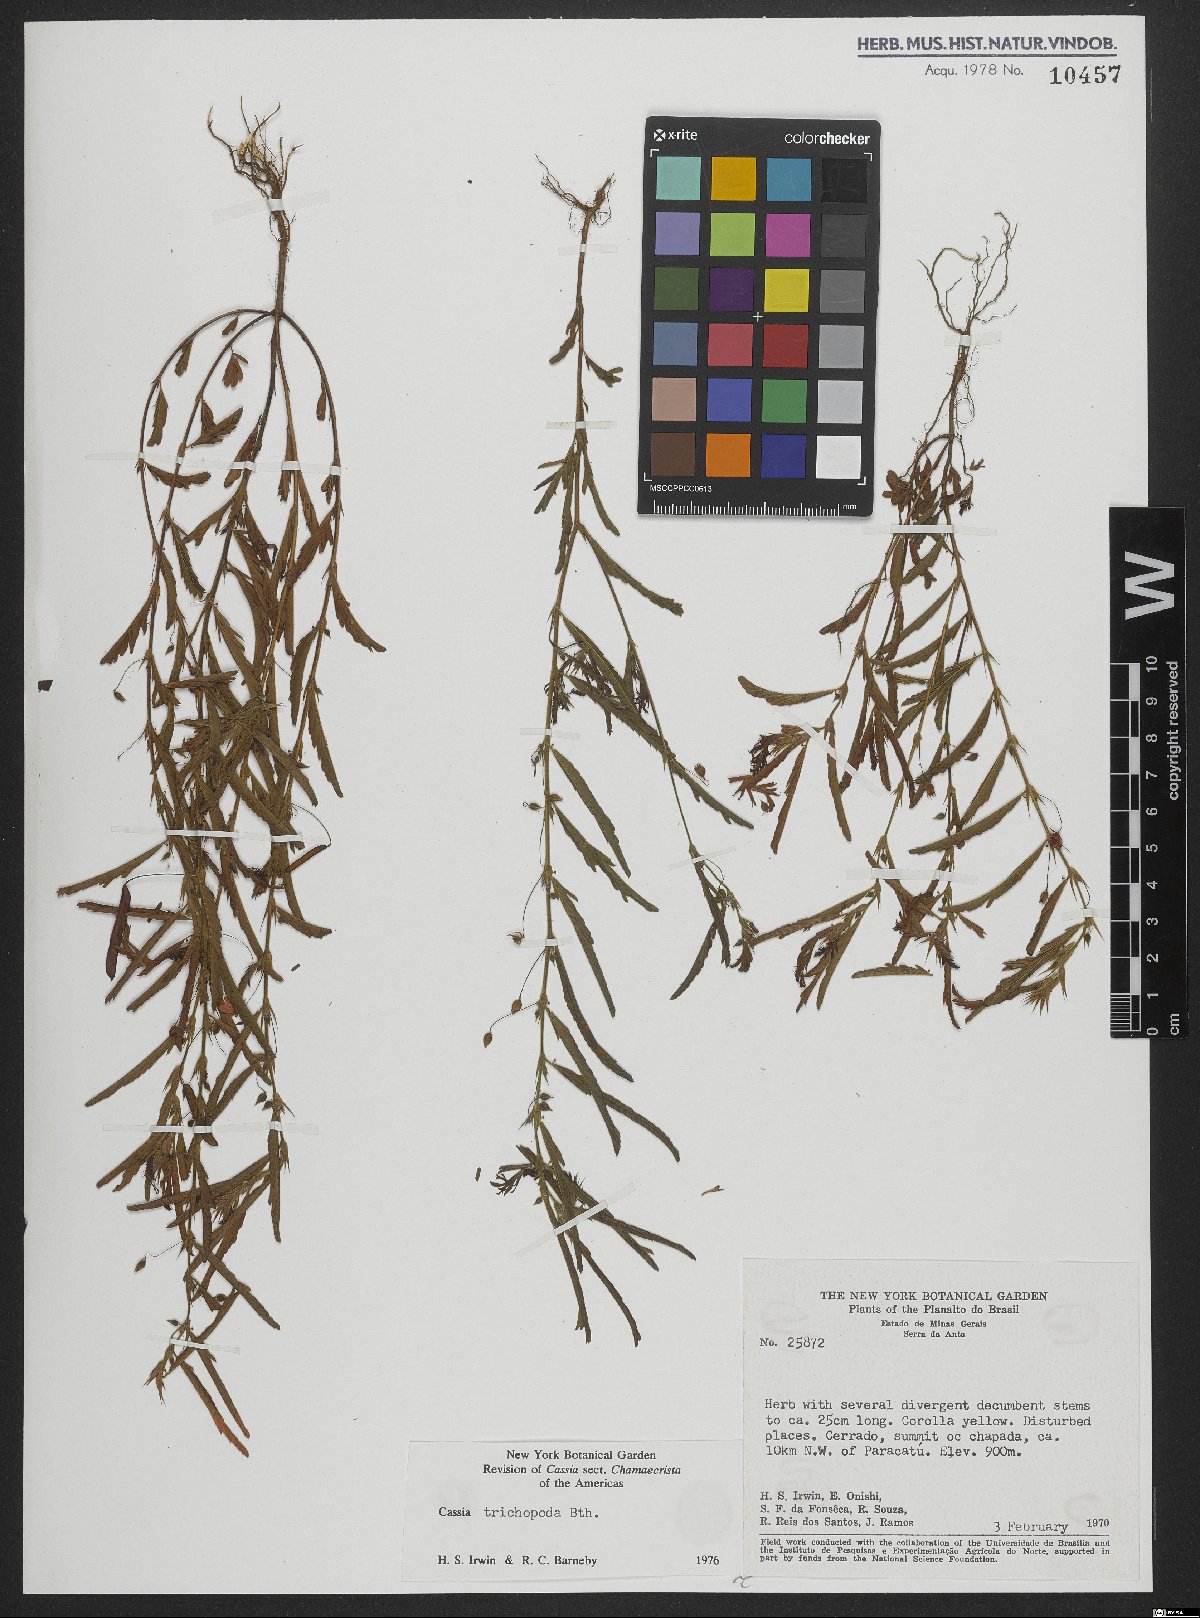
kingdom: Plantae
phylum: Tracheophyta
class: Magnoliopsida
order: Fabales
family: Fabaceae
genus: Chamaecrista
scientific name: Chamaecrista trichopoda
